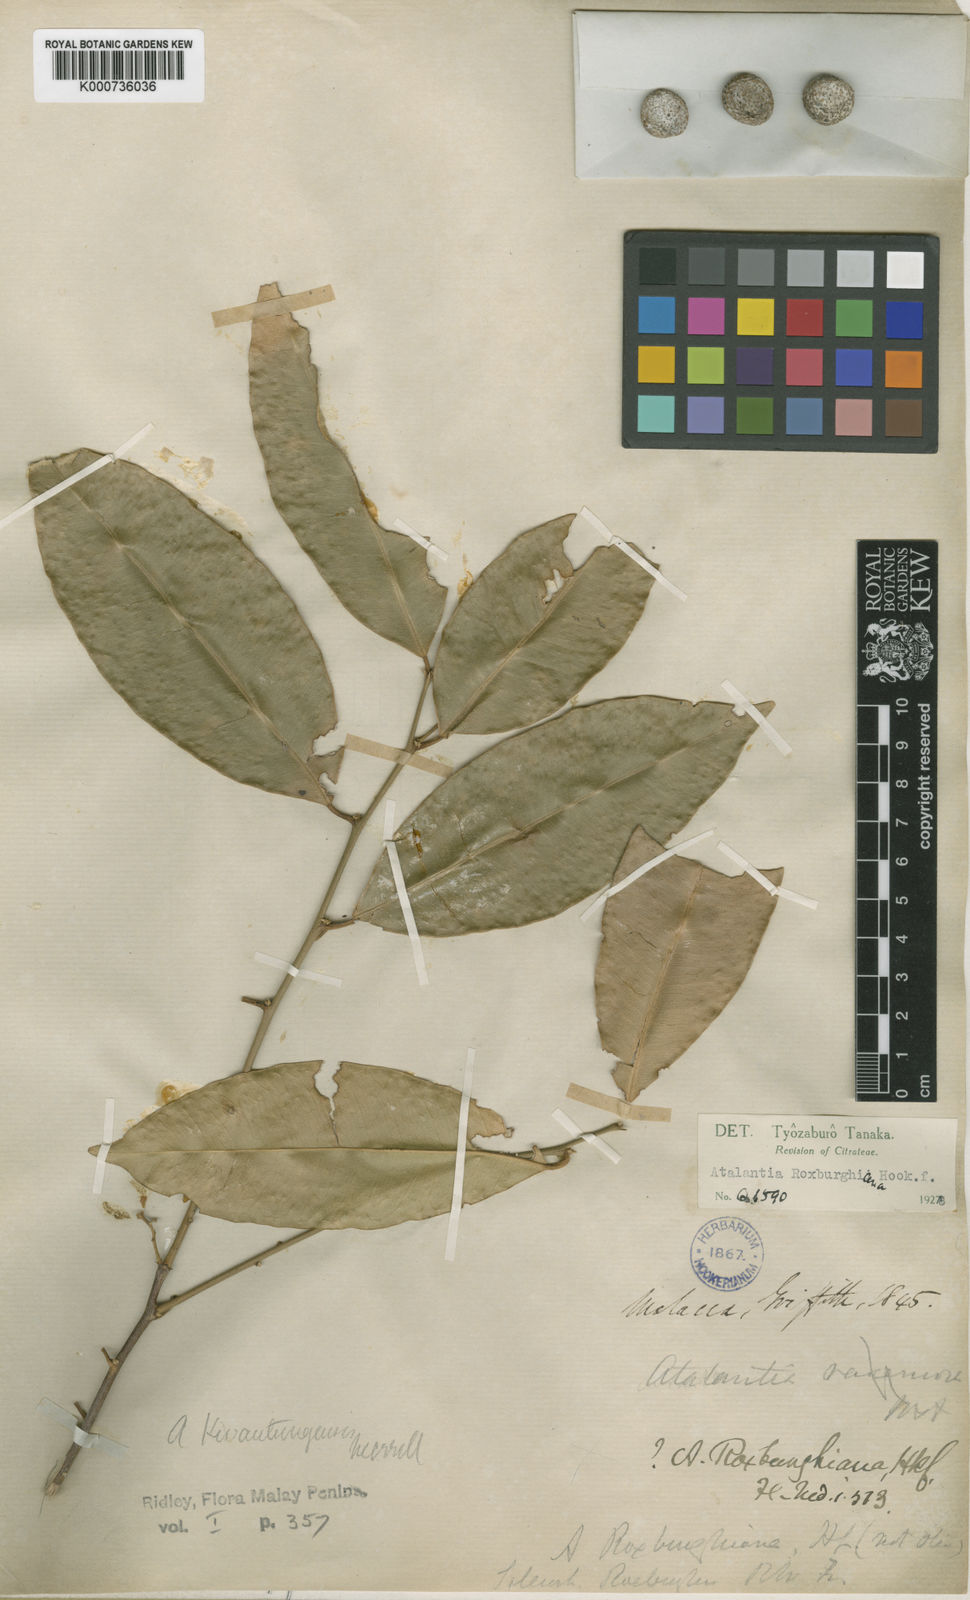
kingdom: Plantae
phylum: Tracheophyta
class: Magnoliopsida
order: Sapindales
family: Rutaceae
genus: Atalantia
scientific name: Atalantia simplicifolia
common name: Khasi hills atalantia
